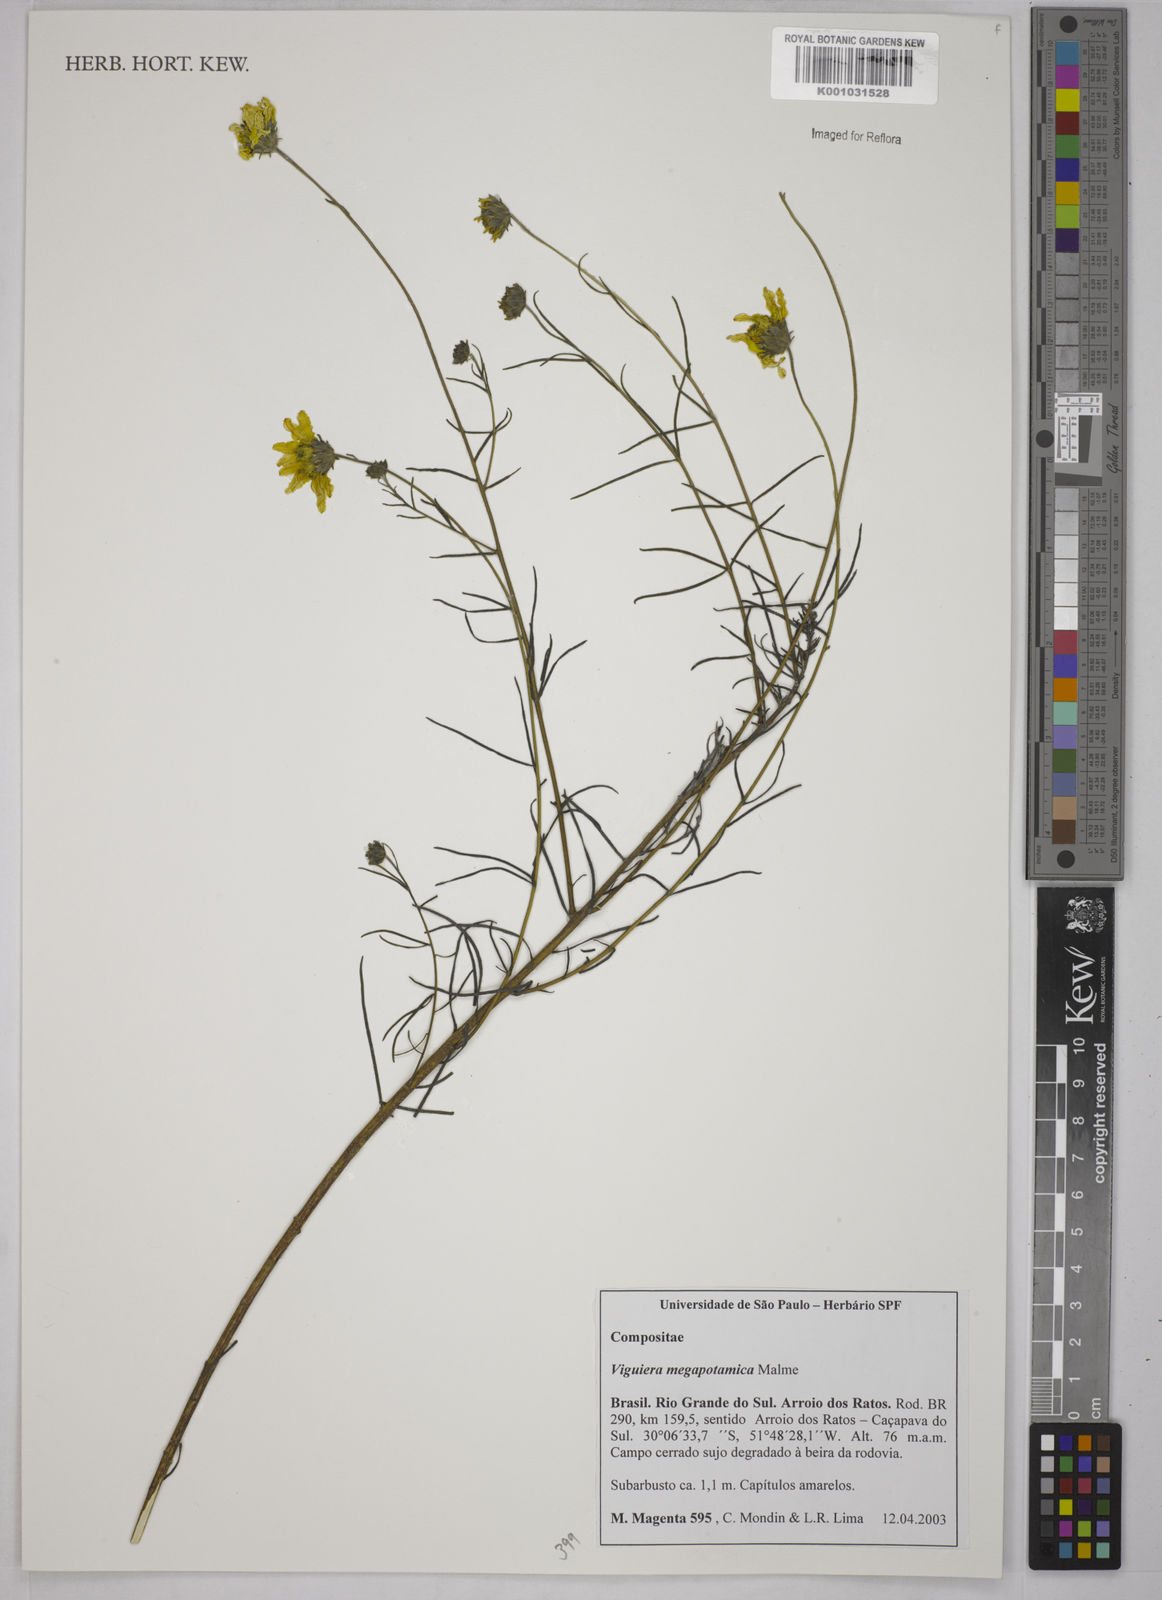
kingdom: Plantae
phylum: Tracheophyta
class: Magnoliopsida
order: Asterales
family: Asteraceae
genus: Aldama
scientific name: Aldama megapotamica
